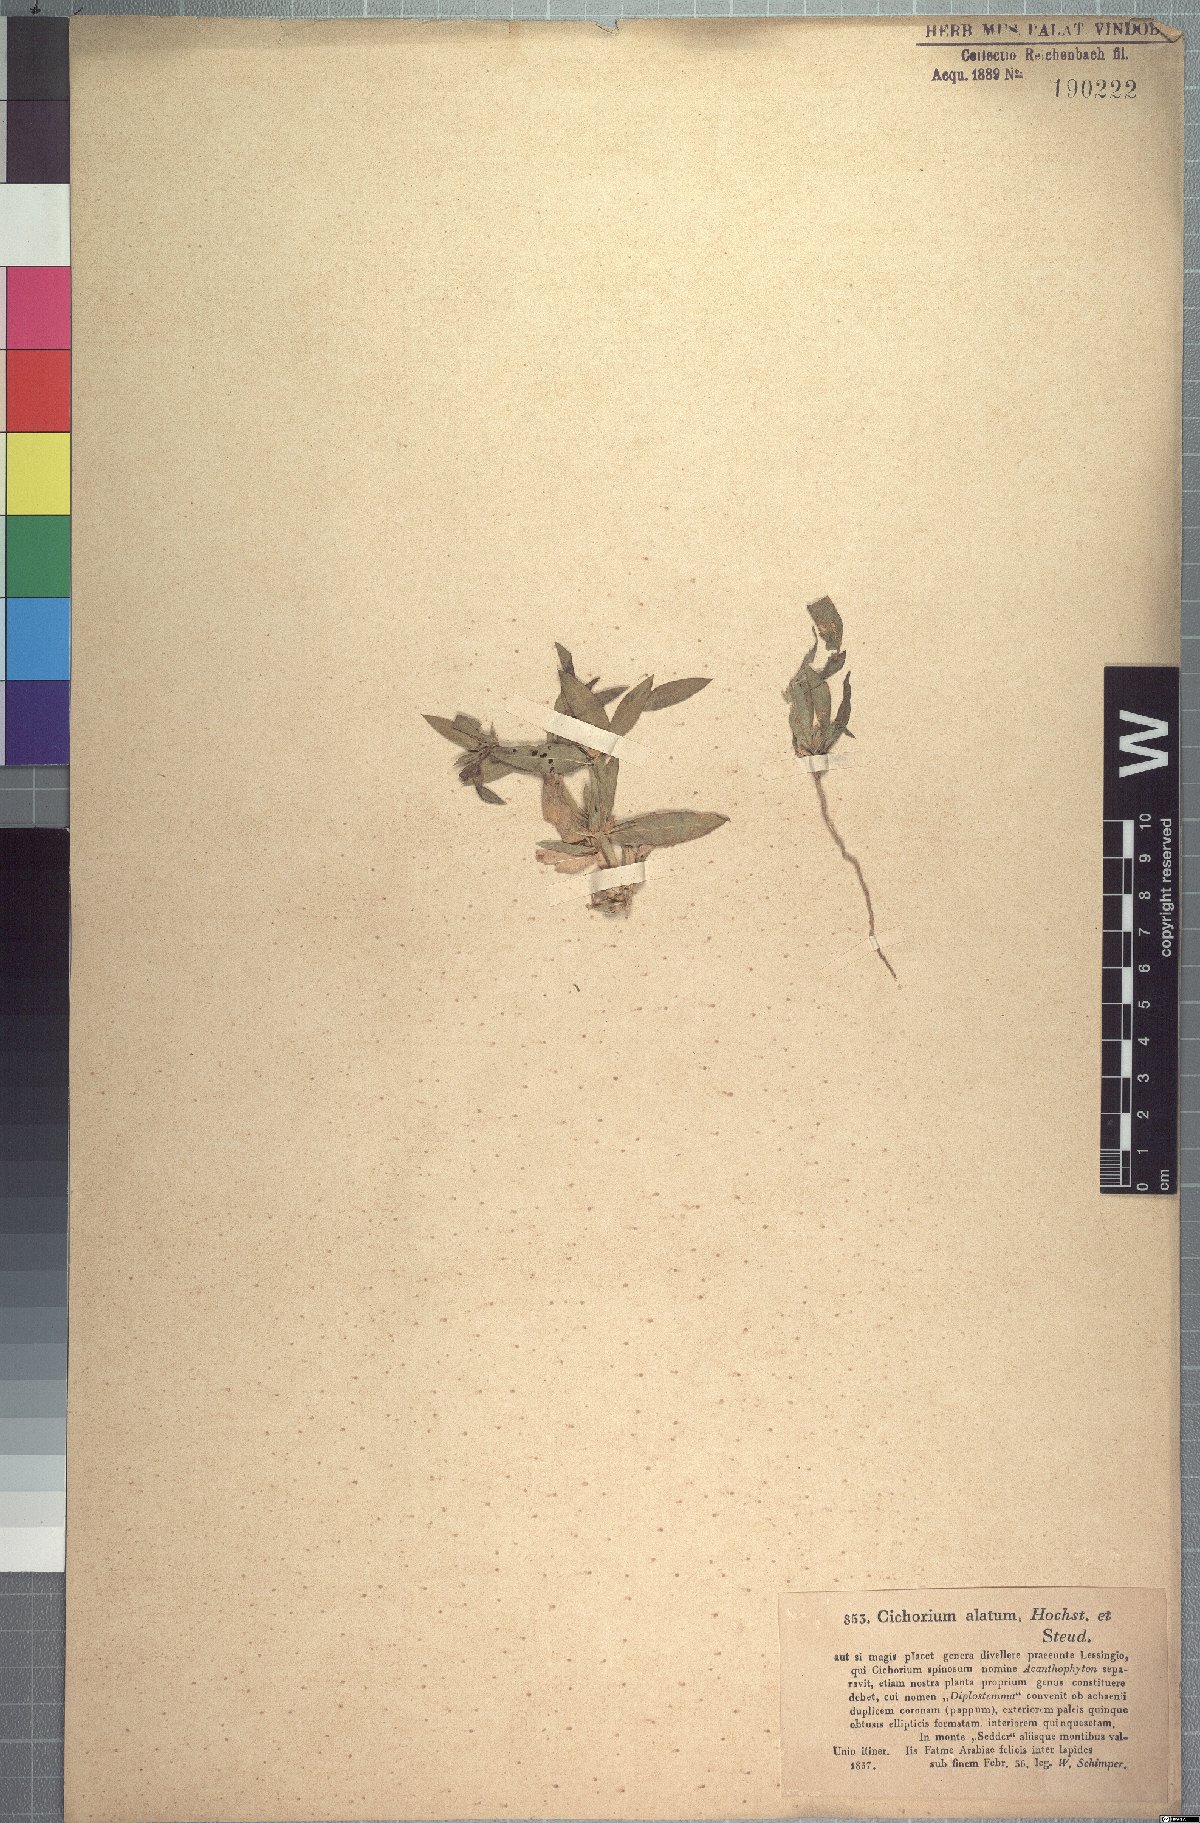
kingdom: Plantae
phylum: Tracheophyta
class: Magnoliopsida
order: Asterales
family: Asteraceae
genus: Geigeria
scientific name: Geigeria alata
